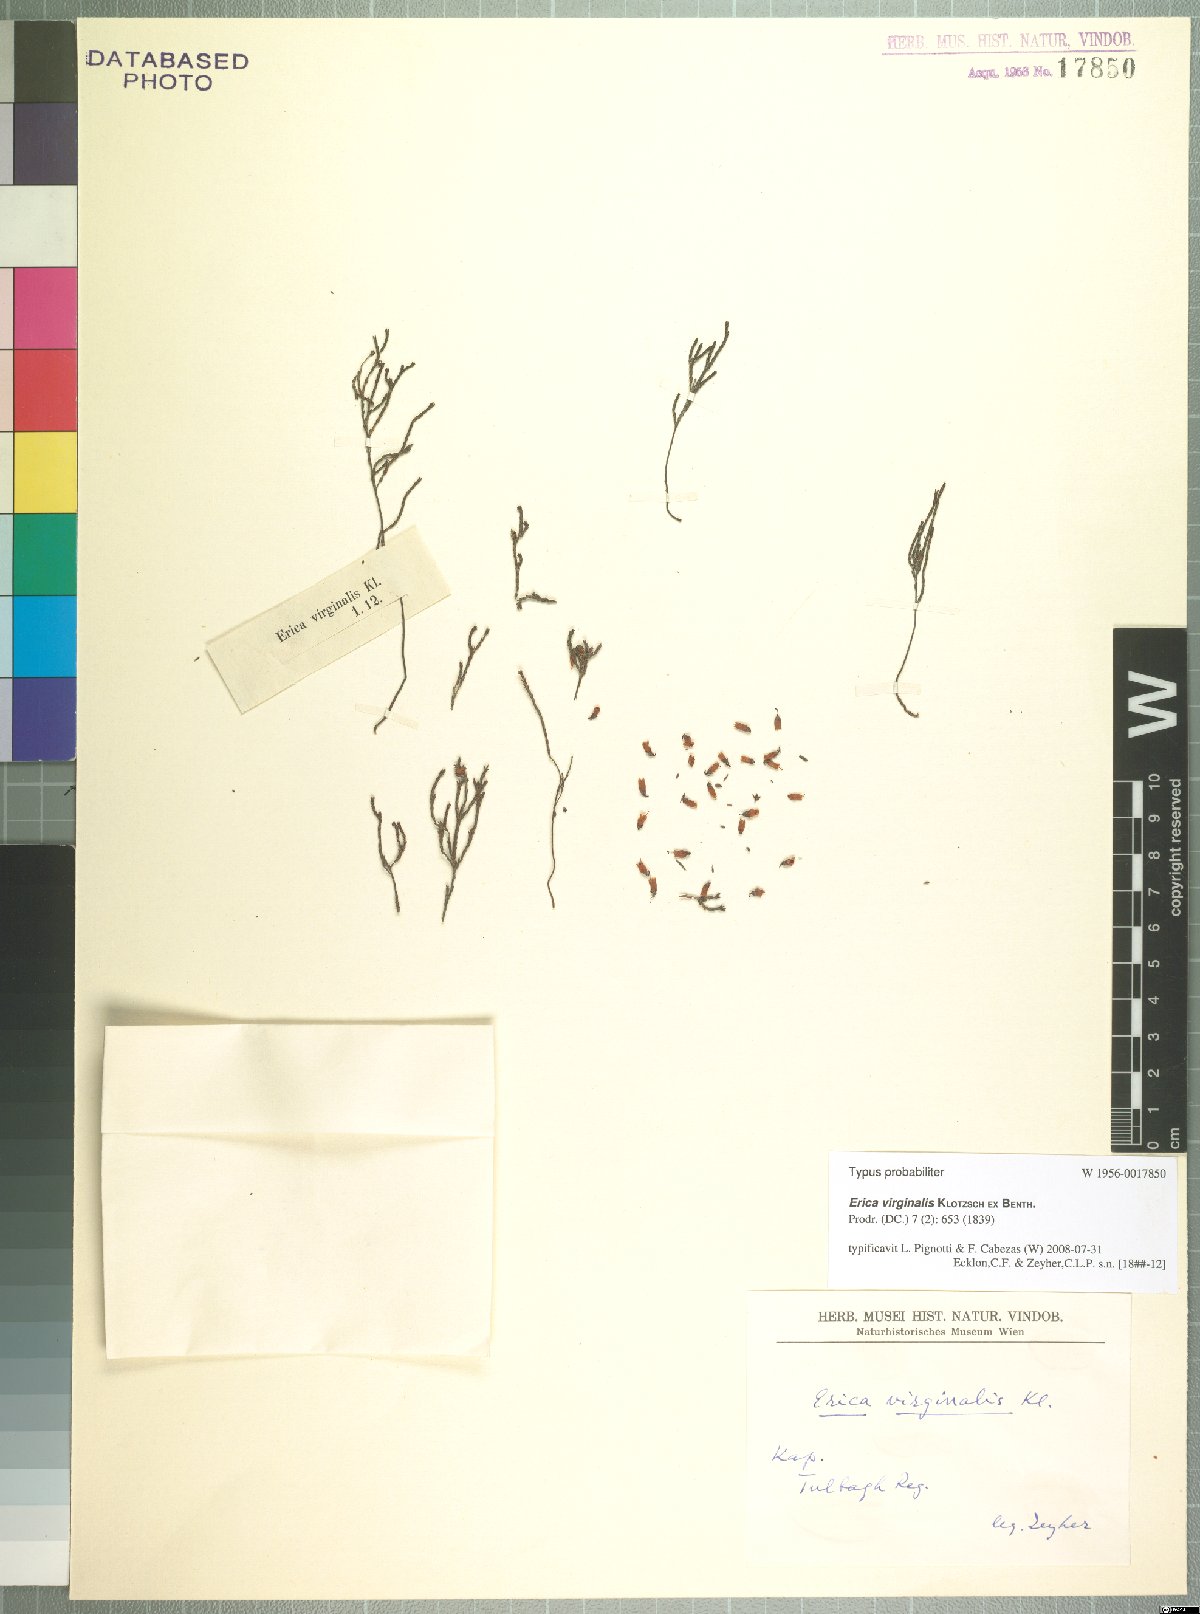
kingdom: Plantae
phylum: Tracheophyta
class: Magnoliopsida
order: Ericales
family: Ericaceae
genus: Erica
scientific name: Erica virginalis
